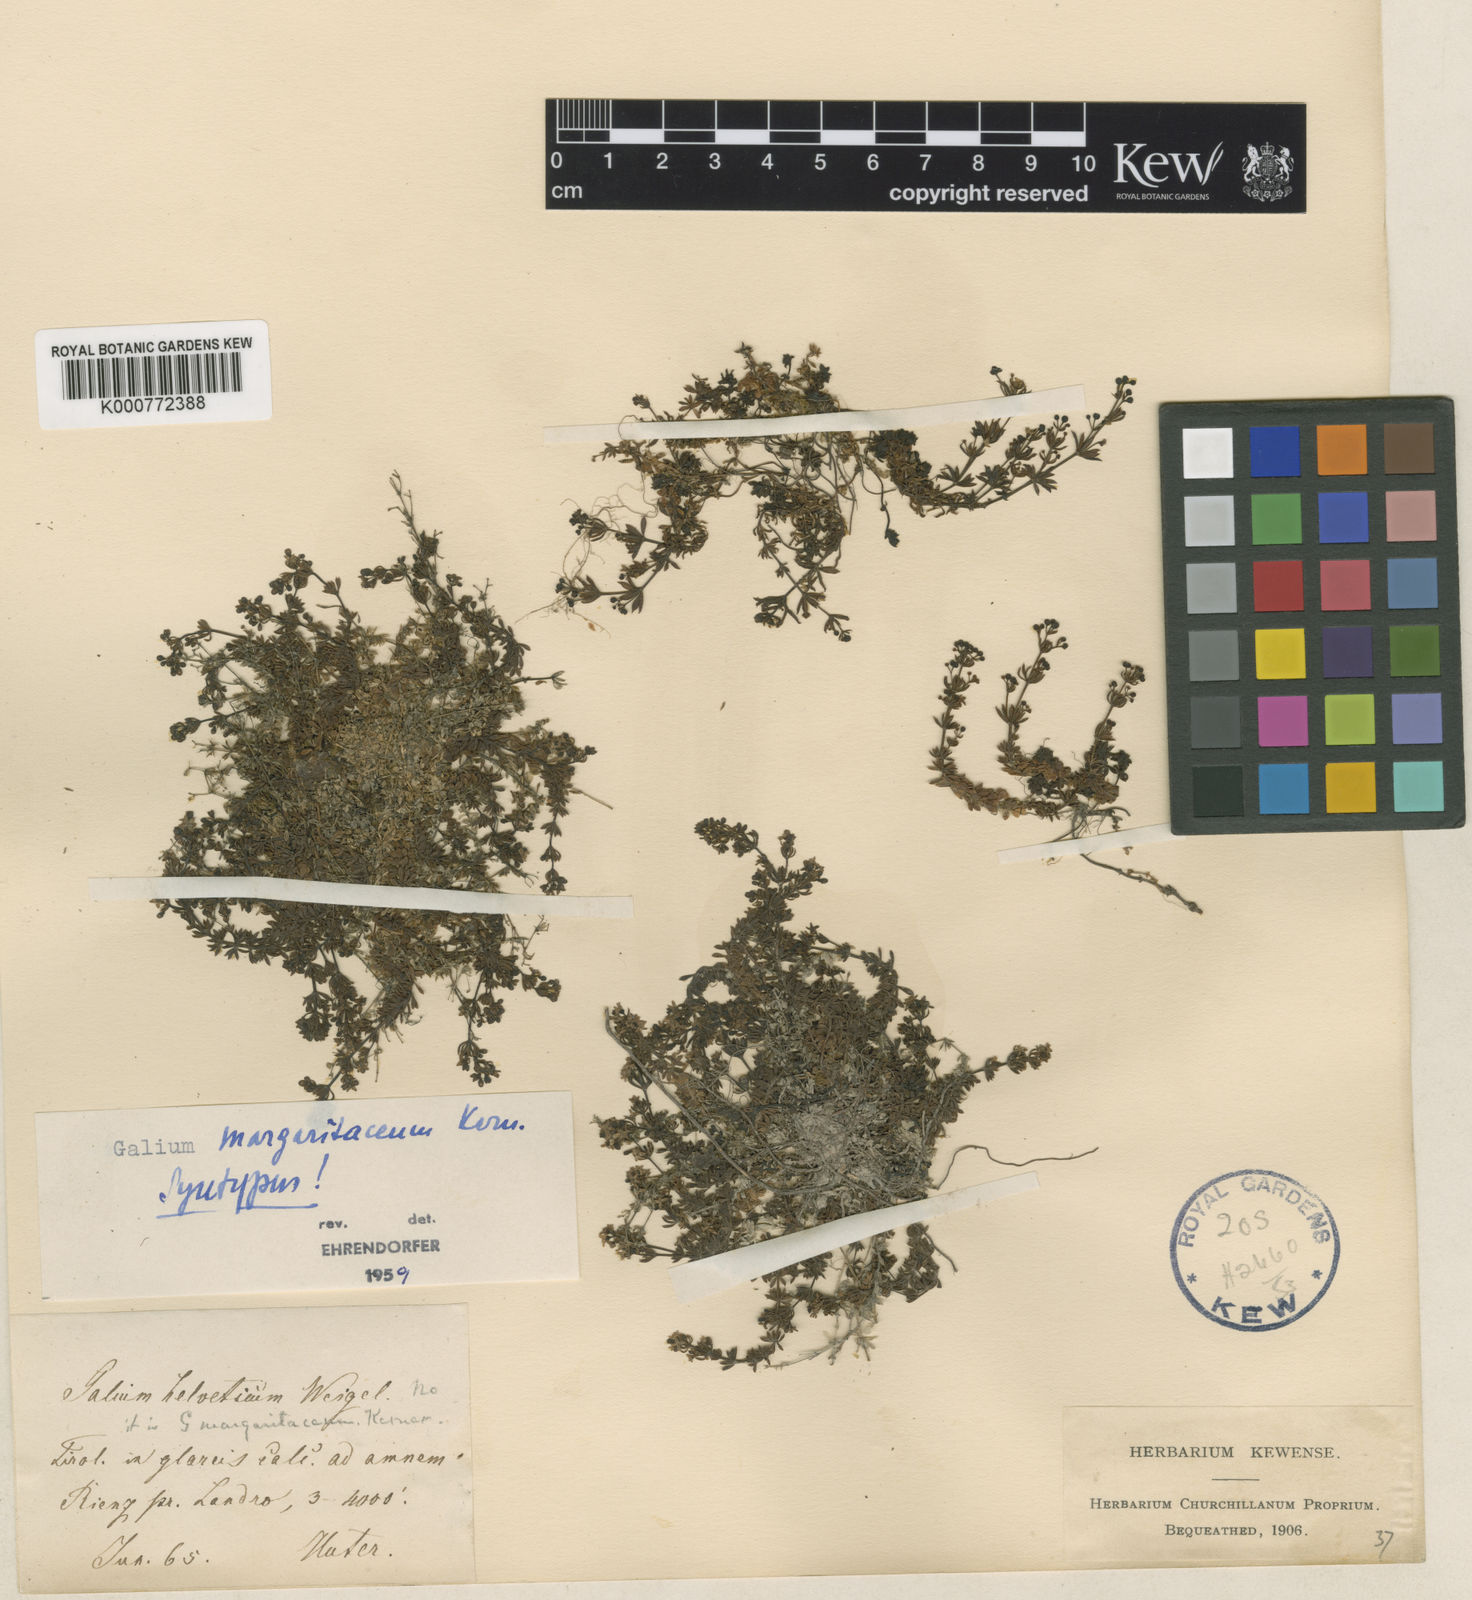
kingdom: Plantae
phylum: Tracheophyta
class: Magnoliopsida
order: Gentianales
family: Rubiaceae
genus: Galium
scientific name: Galium margaritaceum
